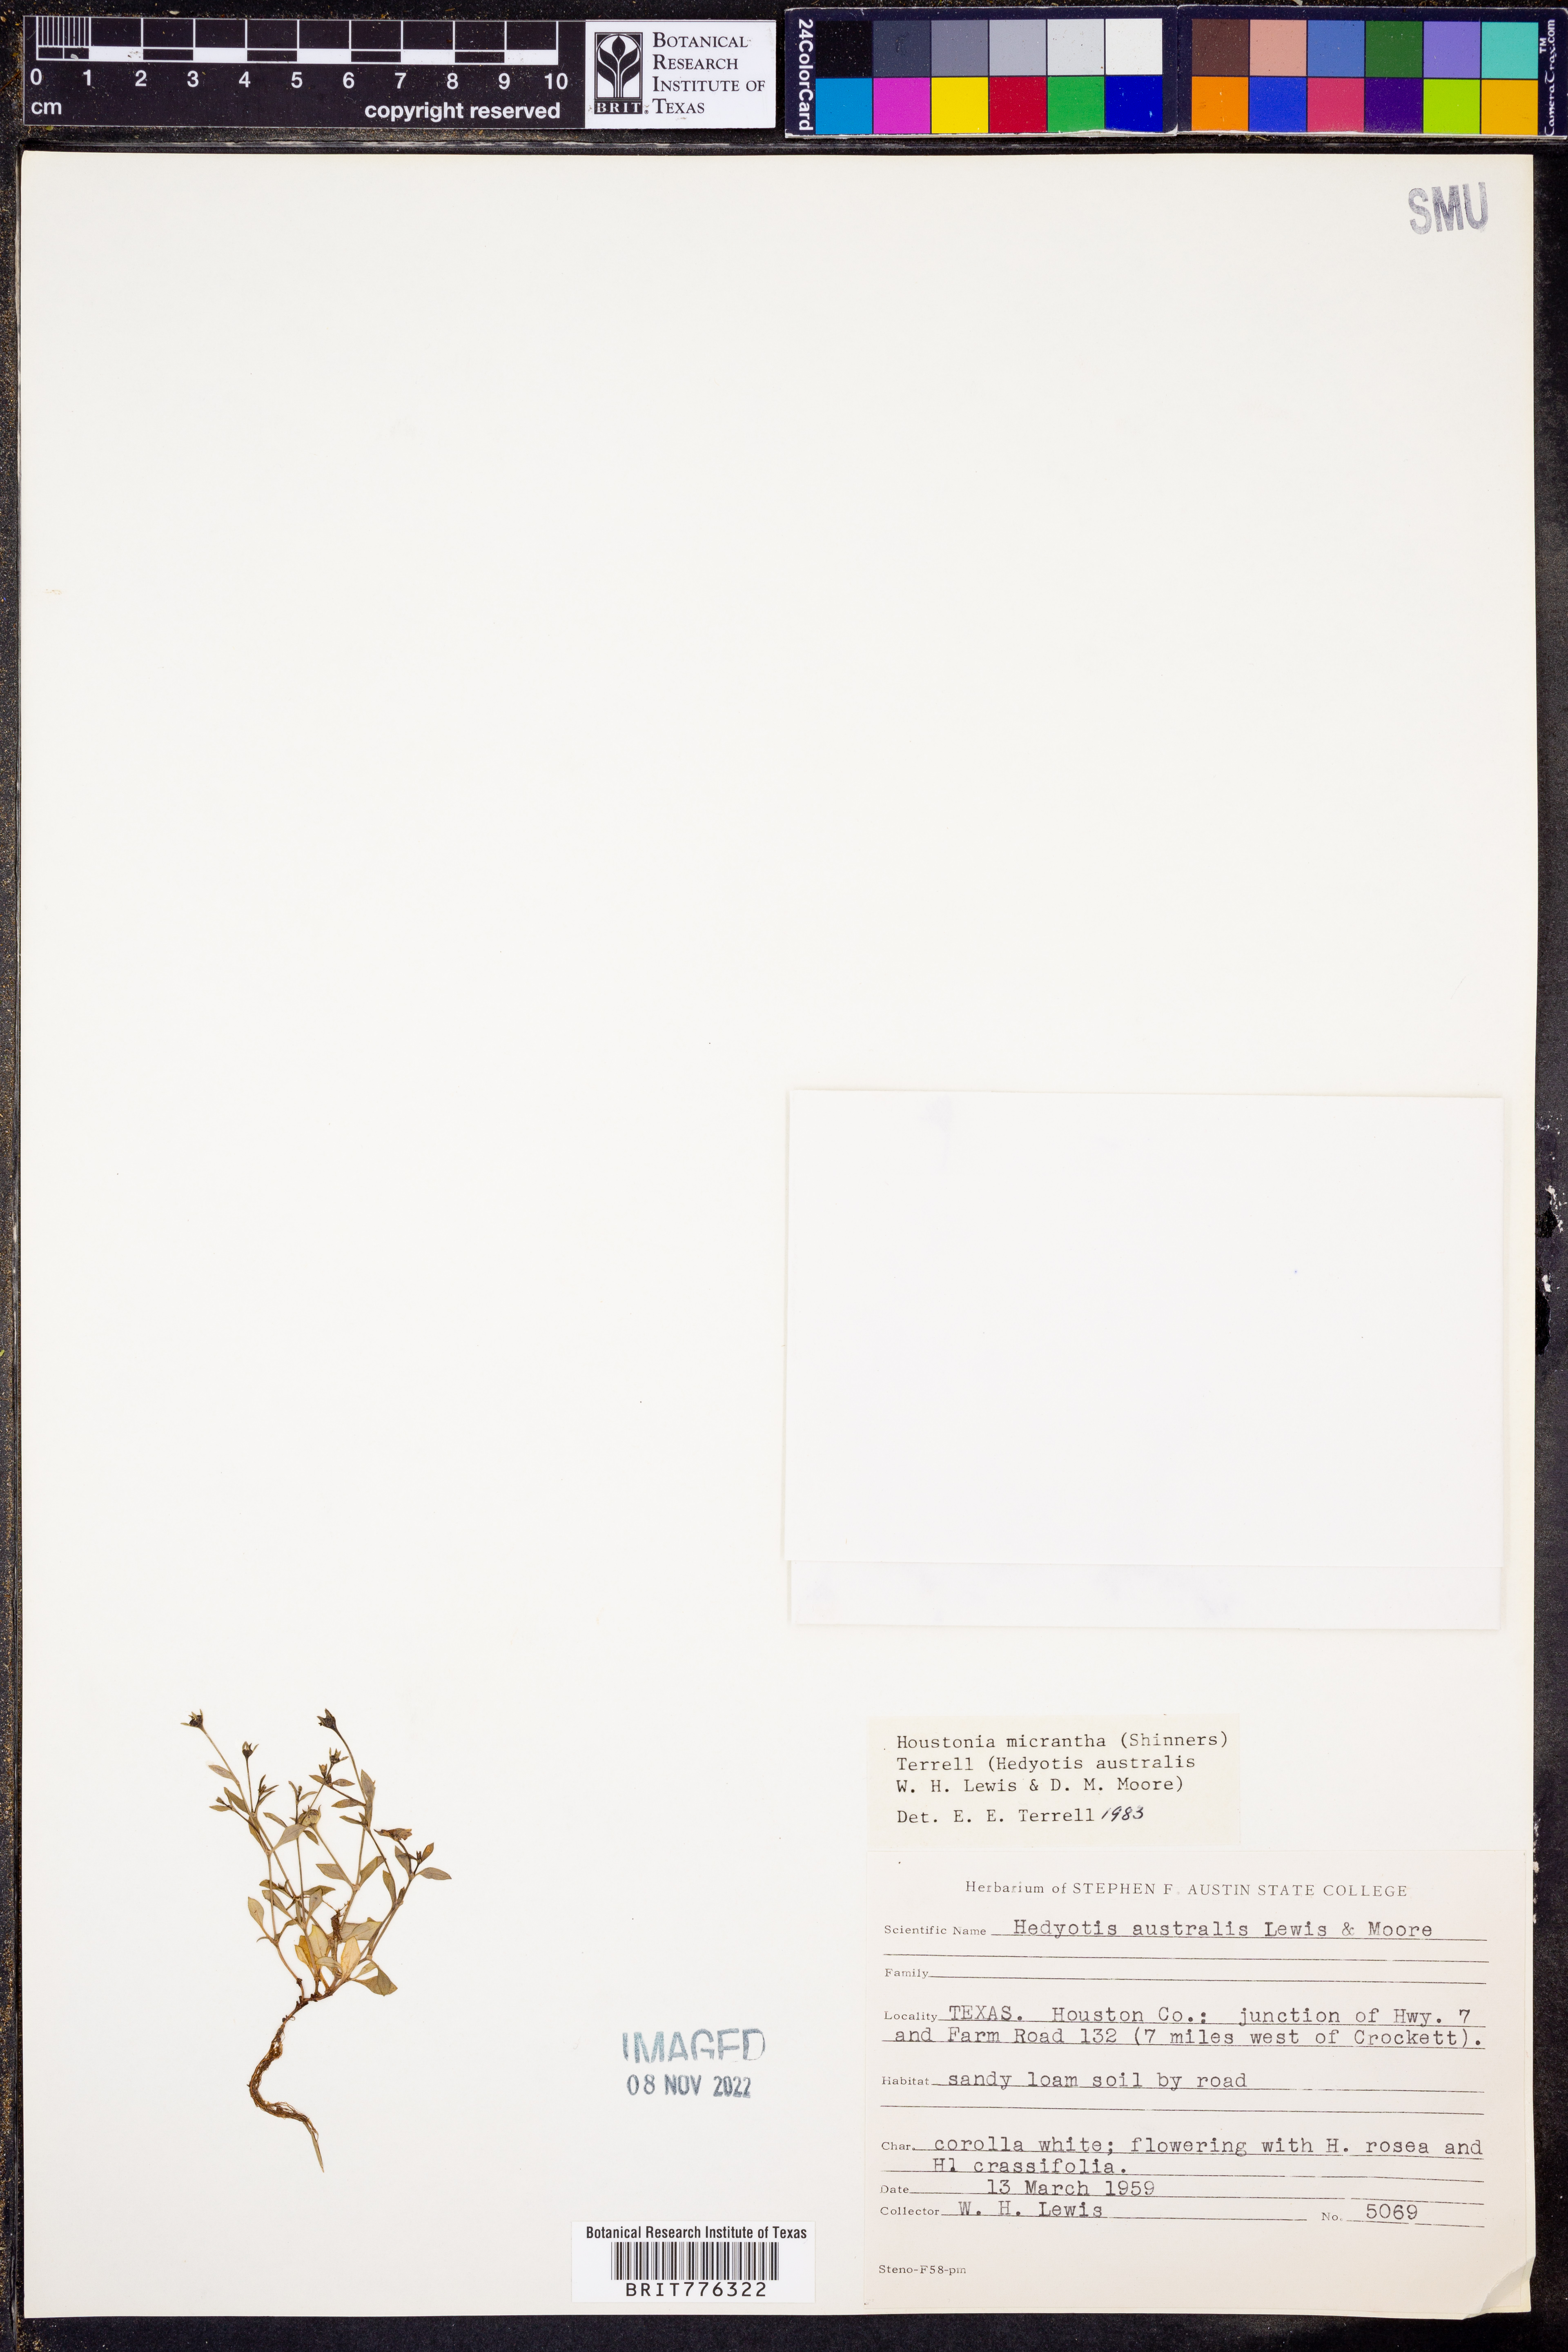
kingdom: Plantae
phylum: Tracheophyta
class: Magnoliopsida
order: Gentianales
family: Rubiaceae
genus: Houstonia
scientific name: Houstonia micrantha
